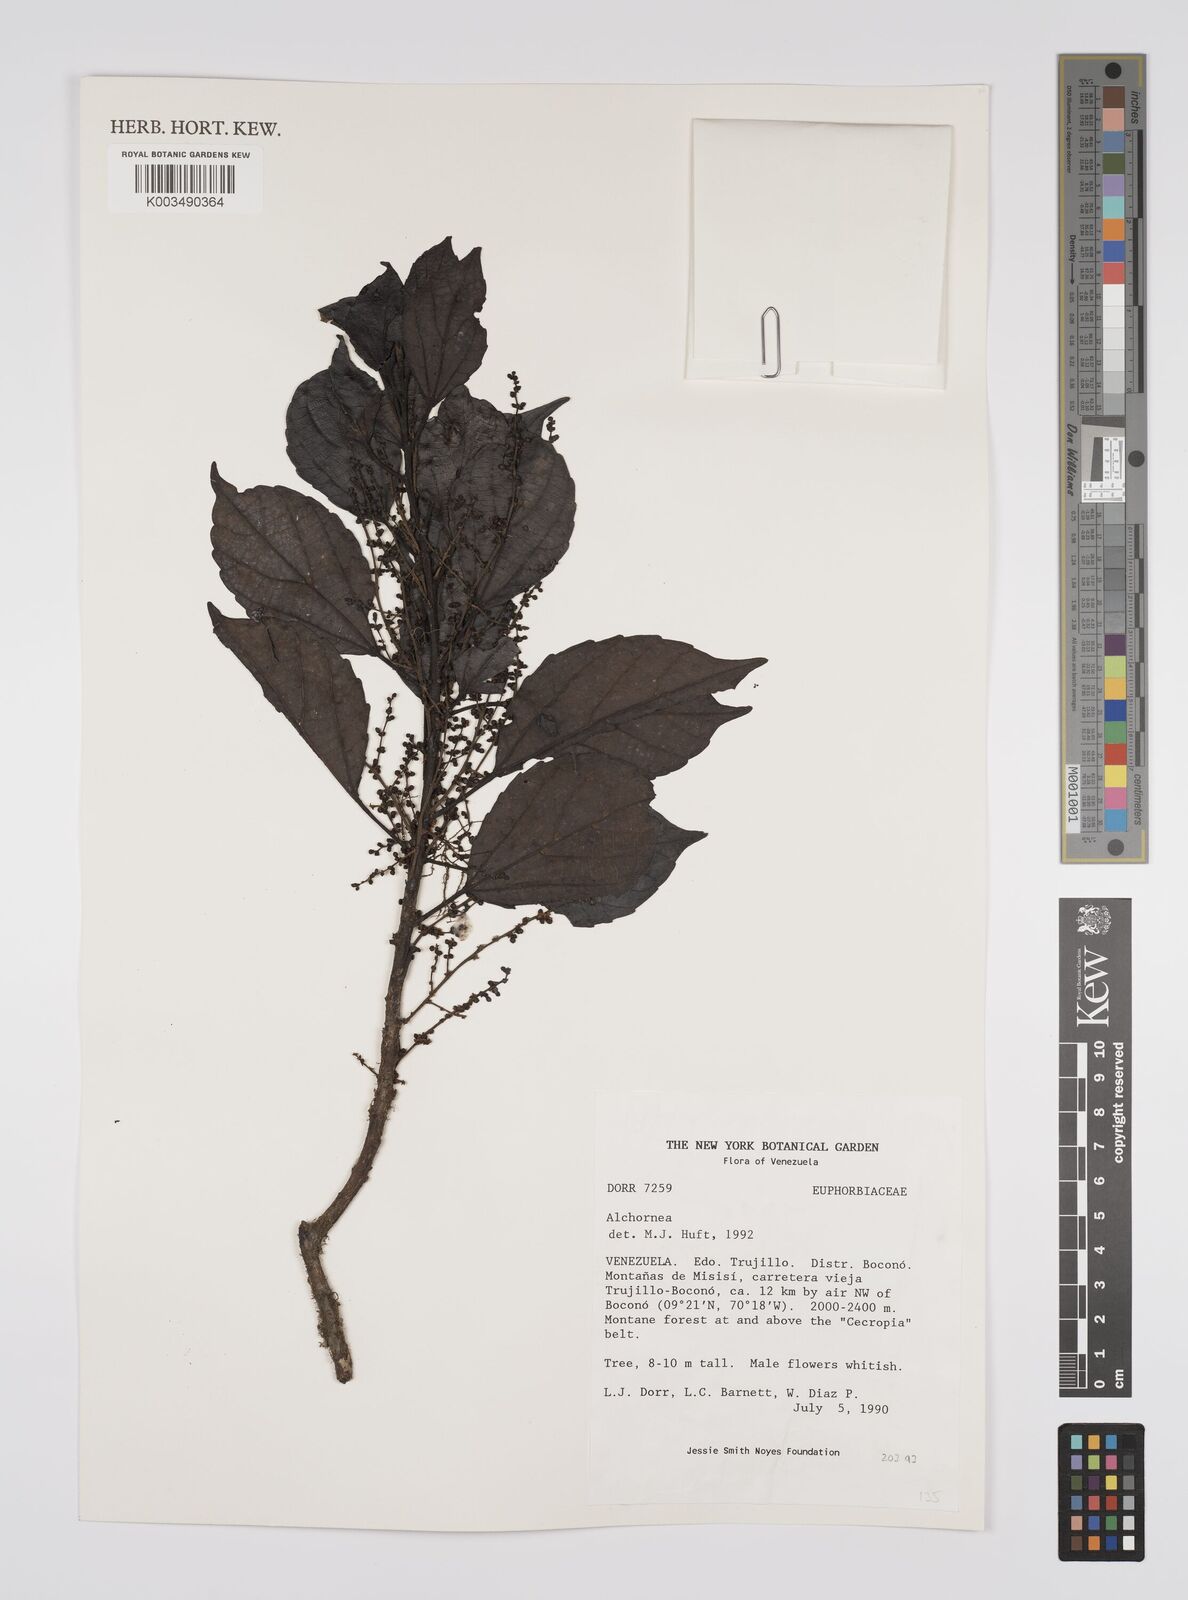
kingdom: Plantae
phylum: Tracheophyta
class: Magnoliopsida
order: Malpighiales
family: Euphorbiaceae
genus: Alchornea
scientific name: Alchornea
